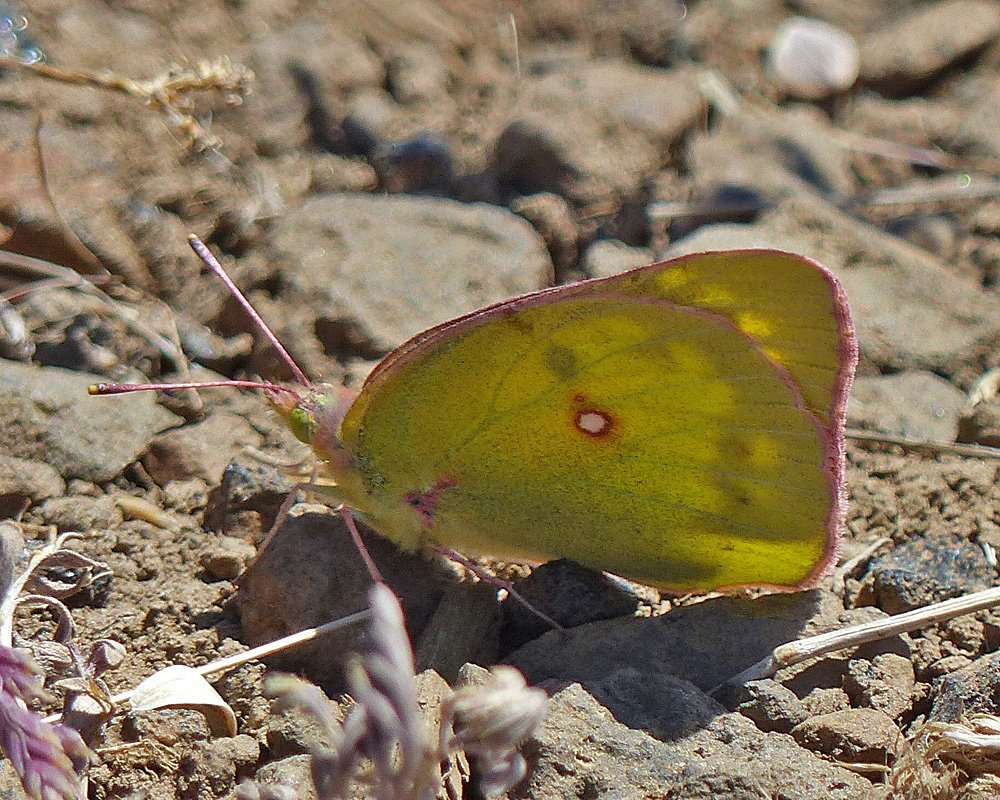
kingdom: Animalia
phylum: Arthropoda
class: Insecta
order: Lepidoptera
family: Pieridae
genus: Colias
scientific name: Colias philodice
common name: Clouded Sulphur
